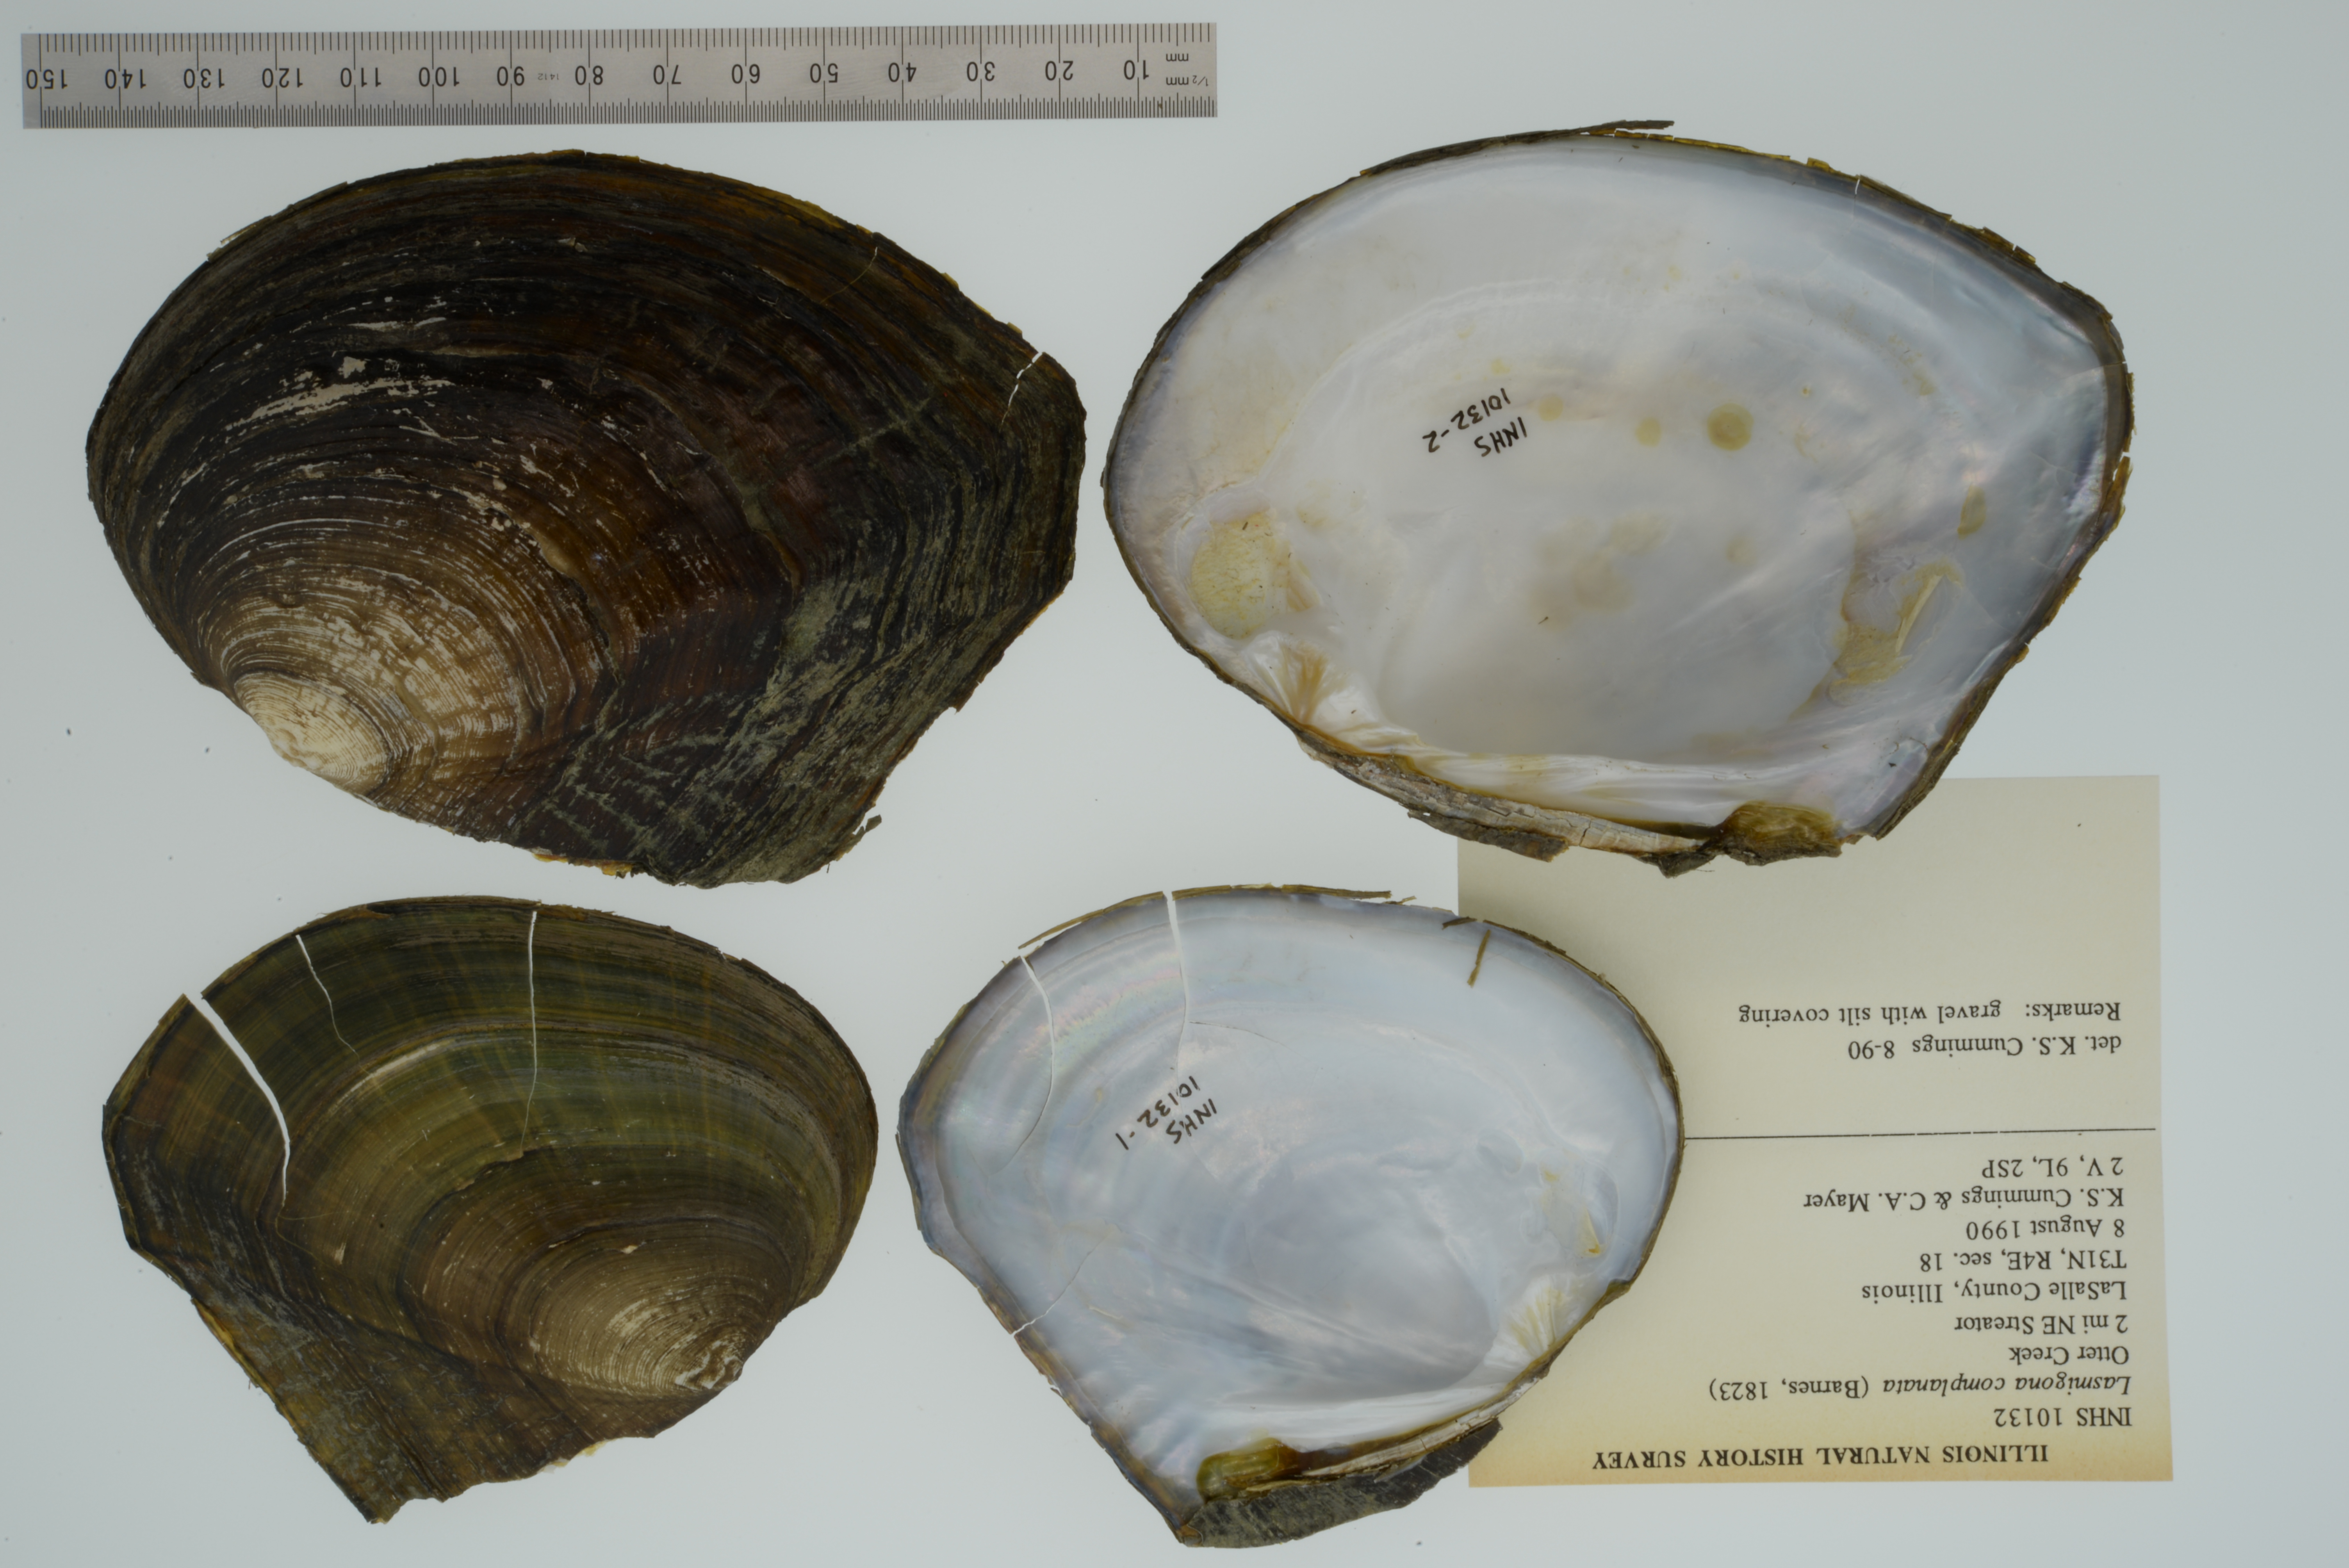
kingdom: Animalia
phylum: Mollusca
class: Bivalvia
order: Unionida
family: Unionidae
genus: Lasmigona
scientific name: Lasmigona complanata
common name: White heelsplitter
